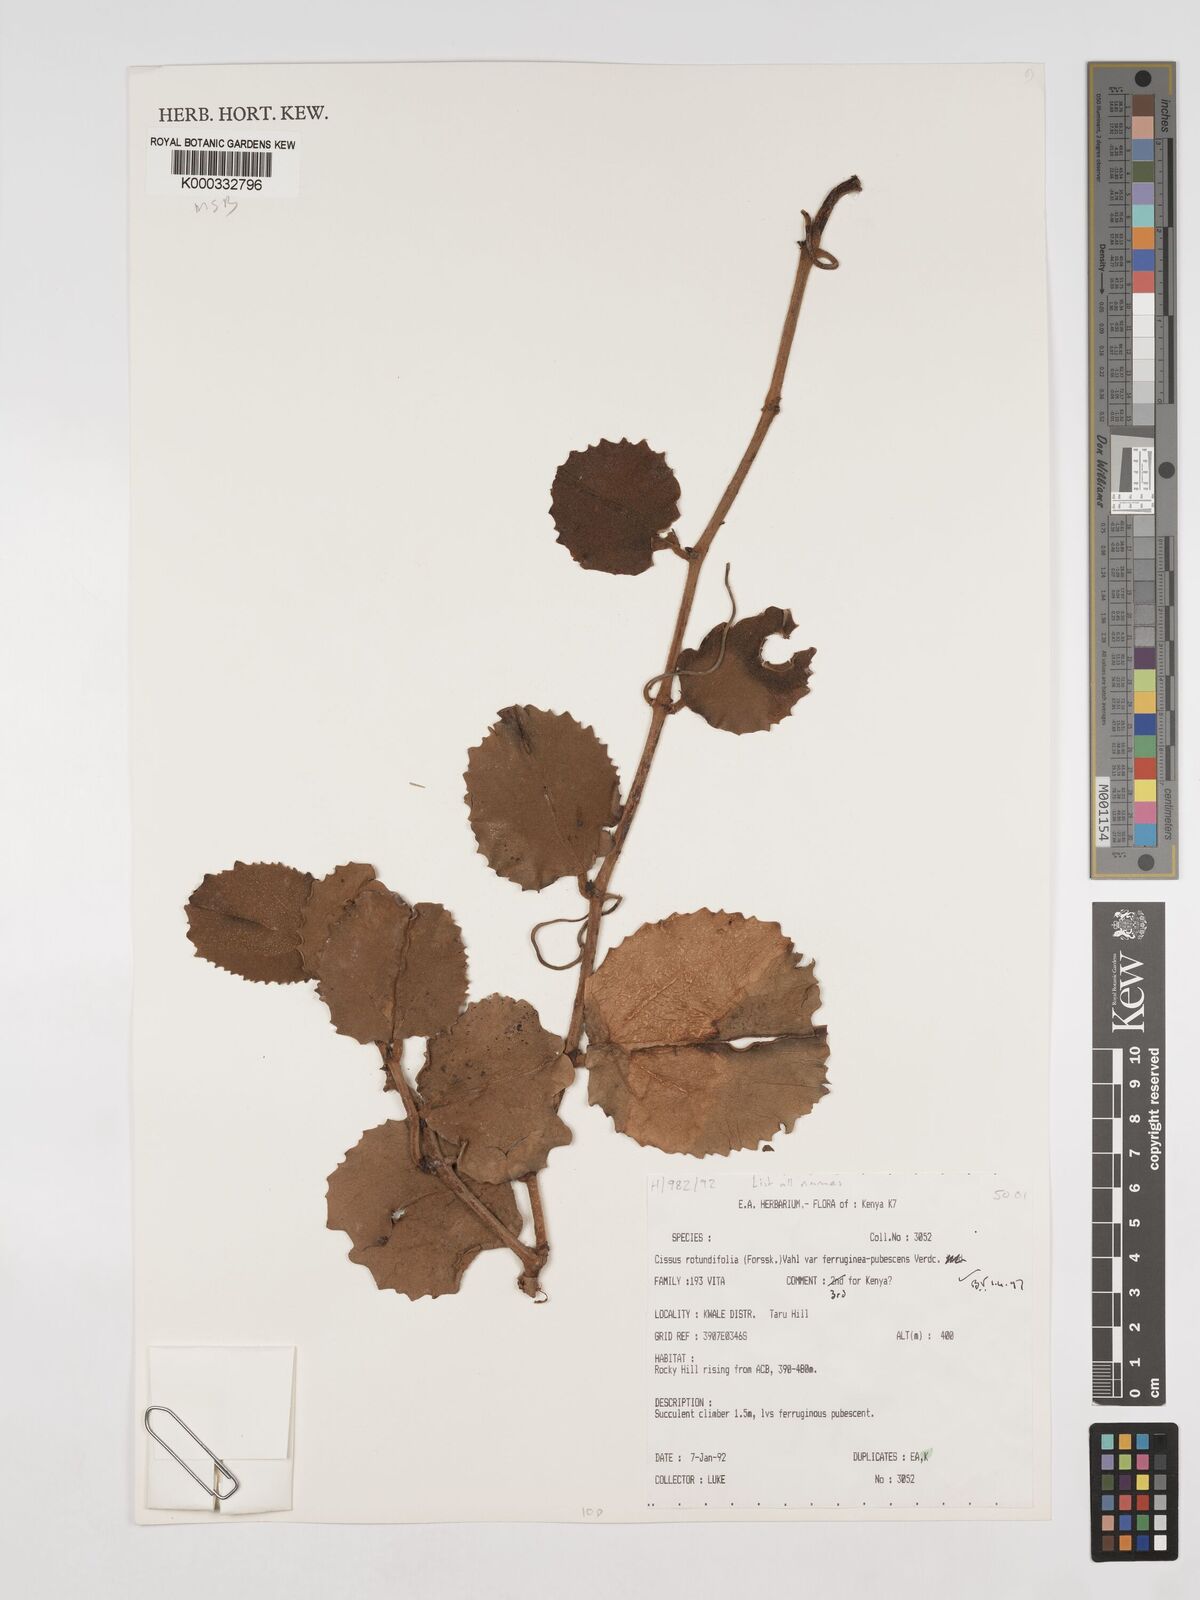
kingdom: Plantae
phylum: Tracheophyta
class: Magnoliopsida
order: Vitales
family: Vitaceae
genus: Cissus
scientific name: Cissus rotundifolia
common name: Arabian wax cissus
